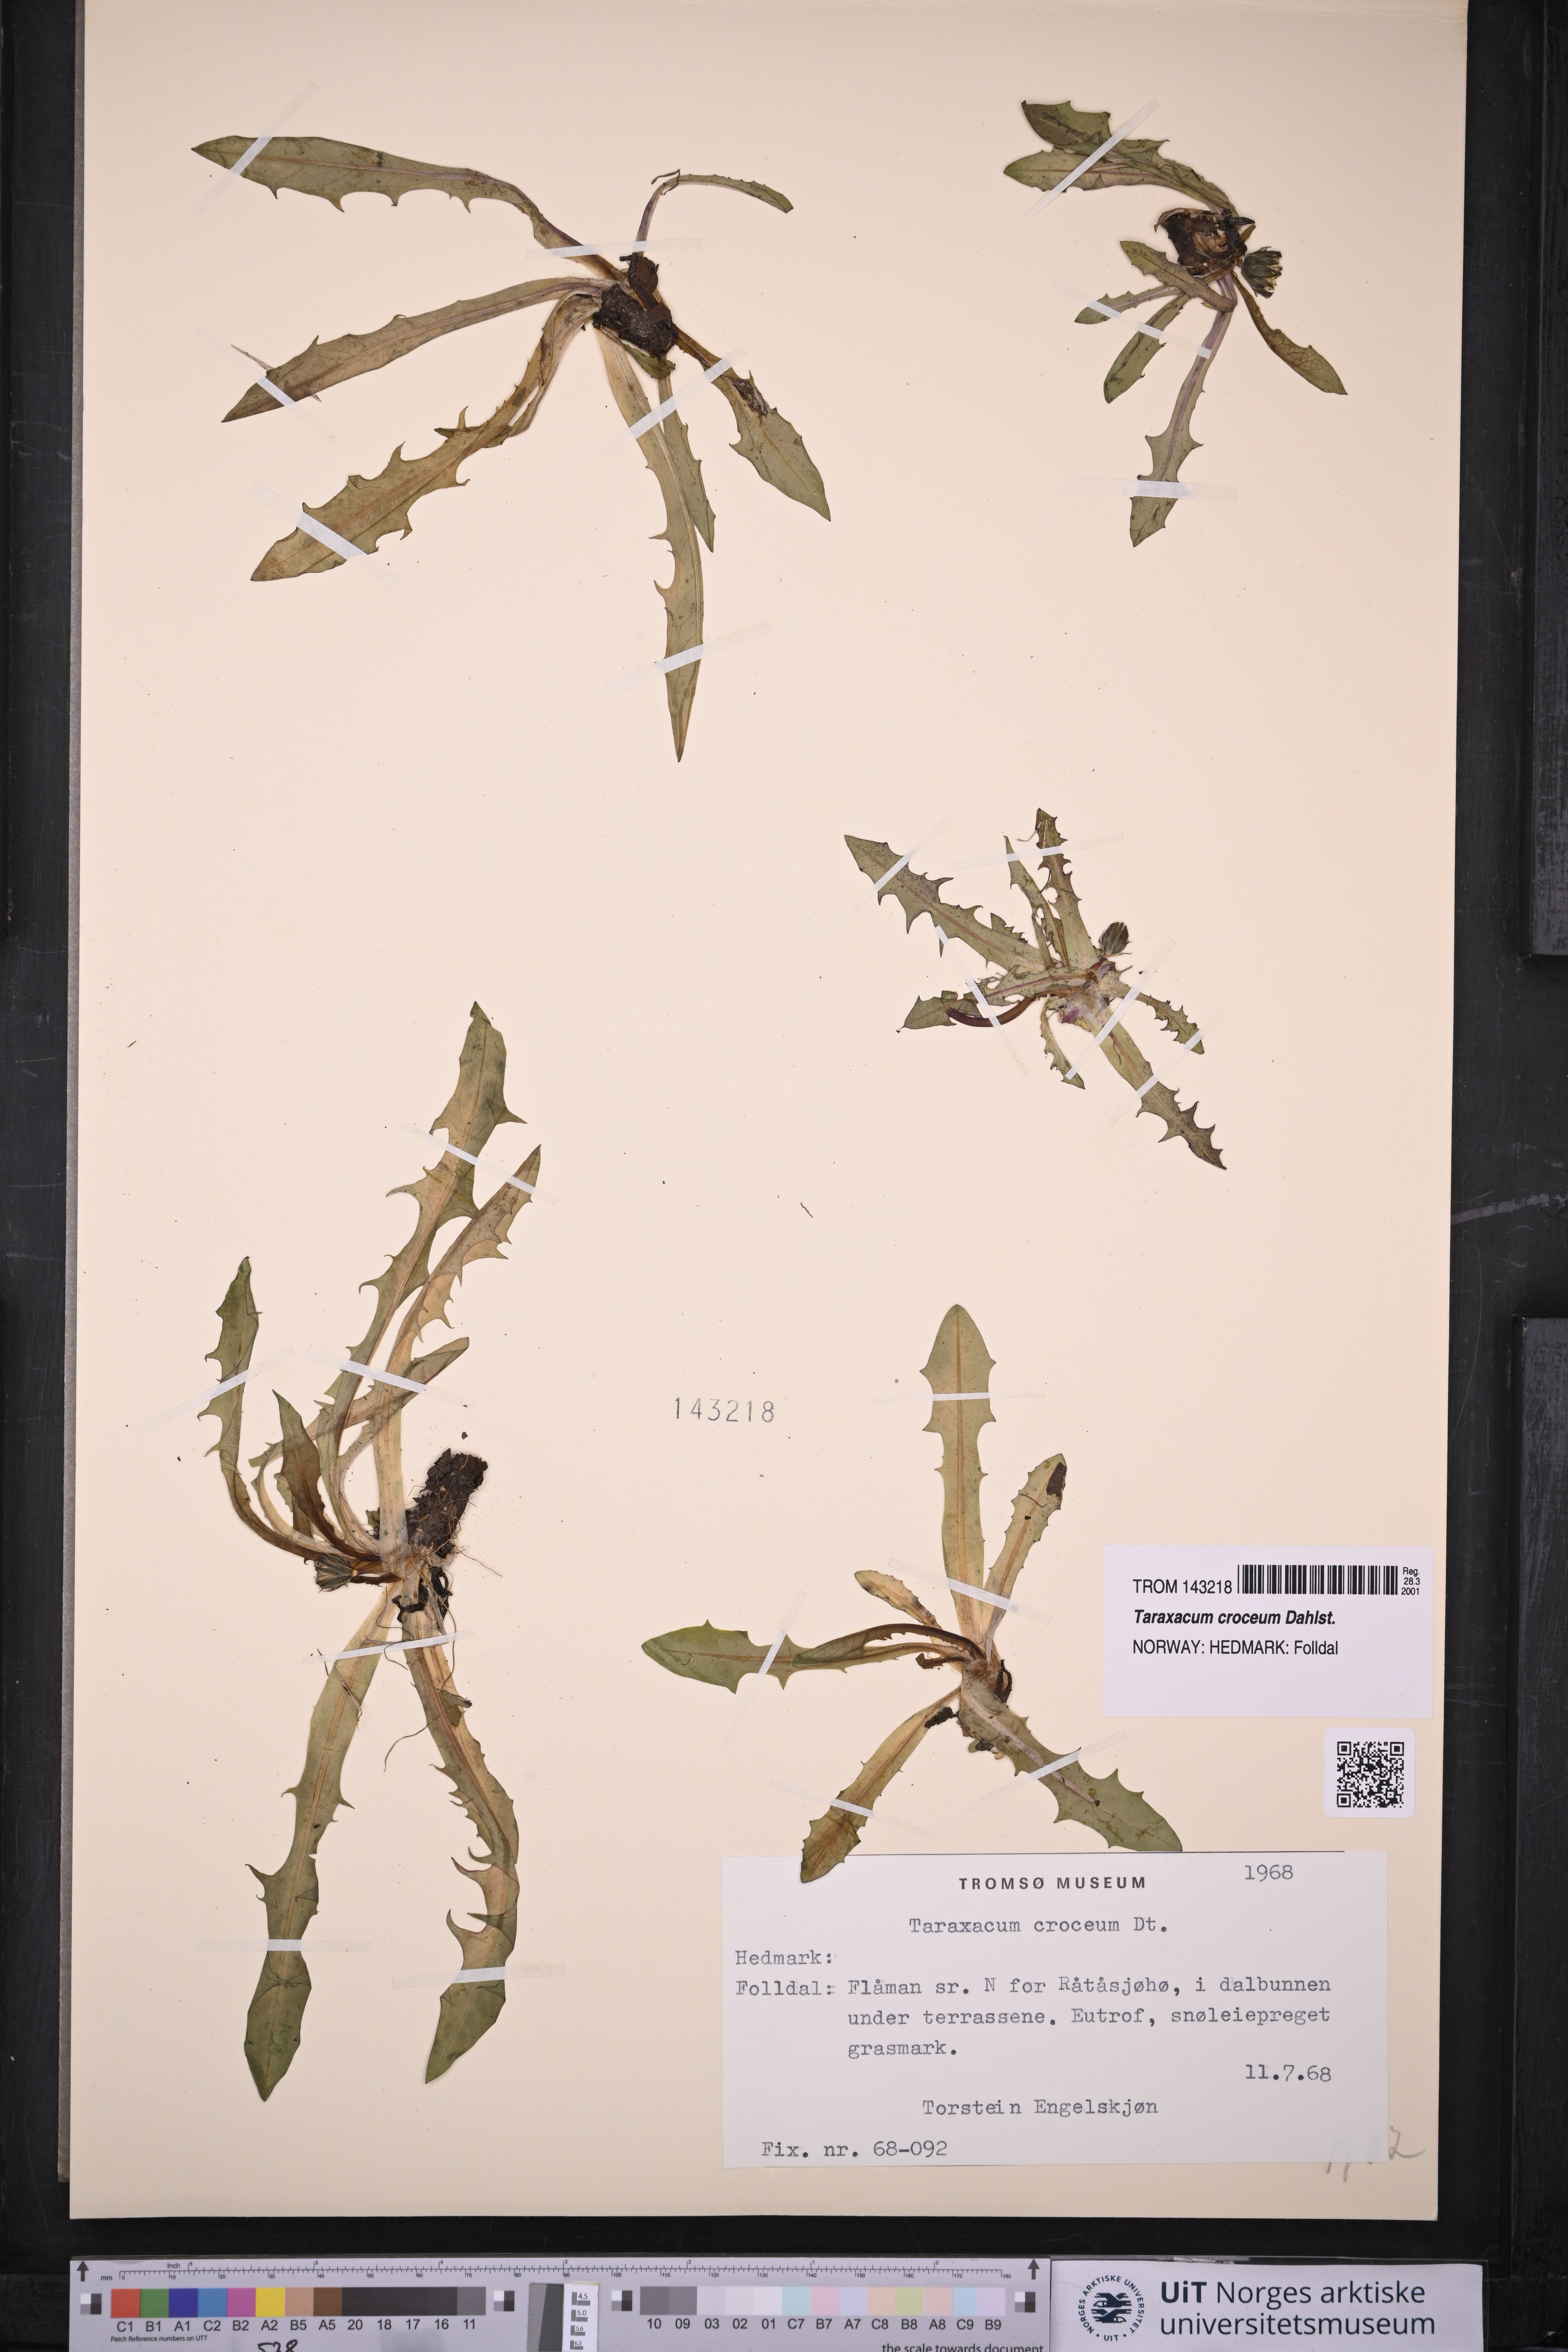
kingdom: Plantae
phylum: Tracheophyta
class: Magnoliopsida
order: Asterales
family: Asteraceae
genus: Taraxacum
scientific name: Taraxacum croceum
